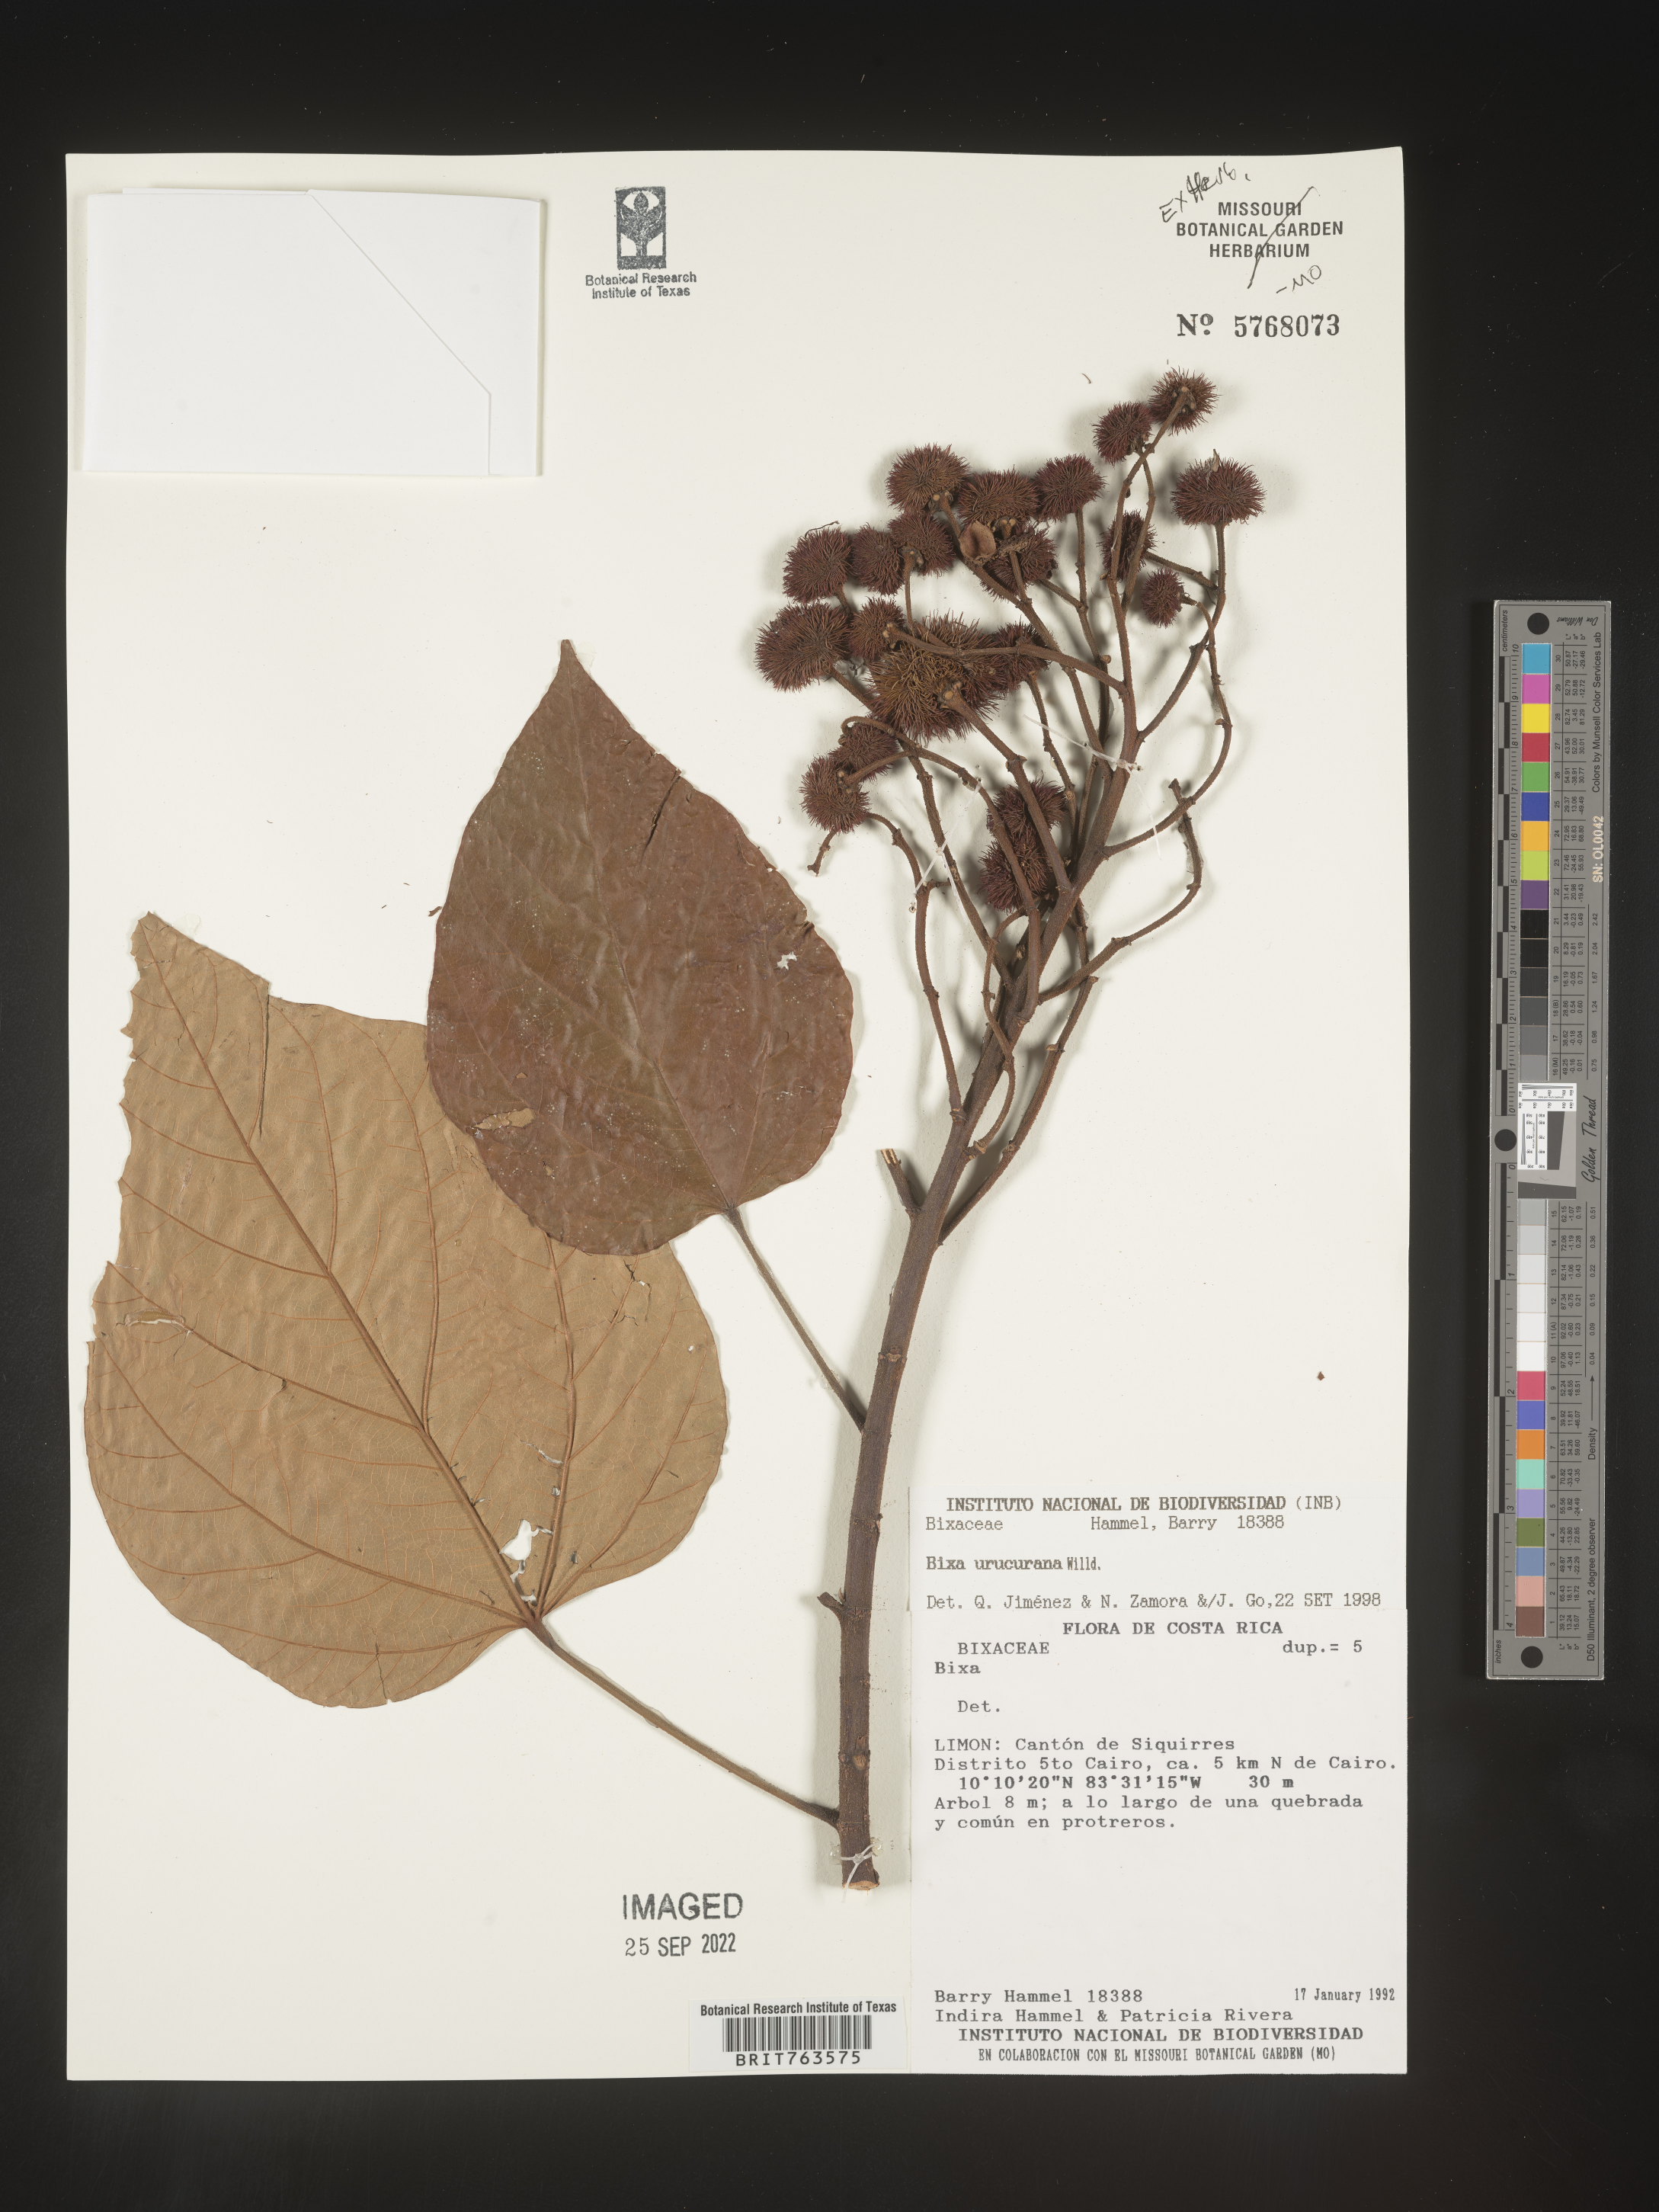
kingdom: Plantae
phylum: Tracheophyta
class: Magnoliopsida
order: Malvales
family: Bixaceae
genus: Bixa
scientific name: Bixa
